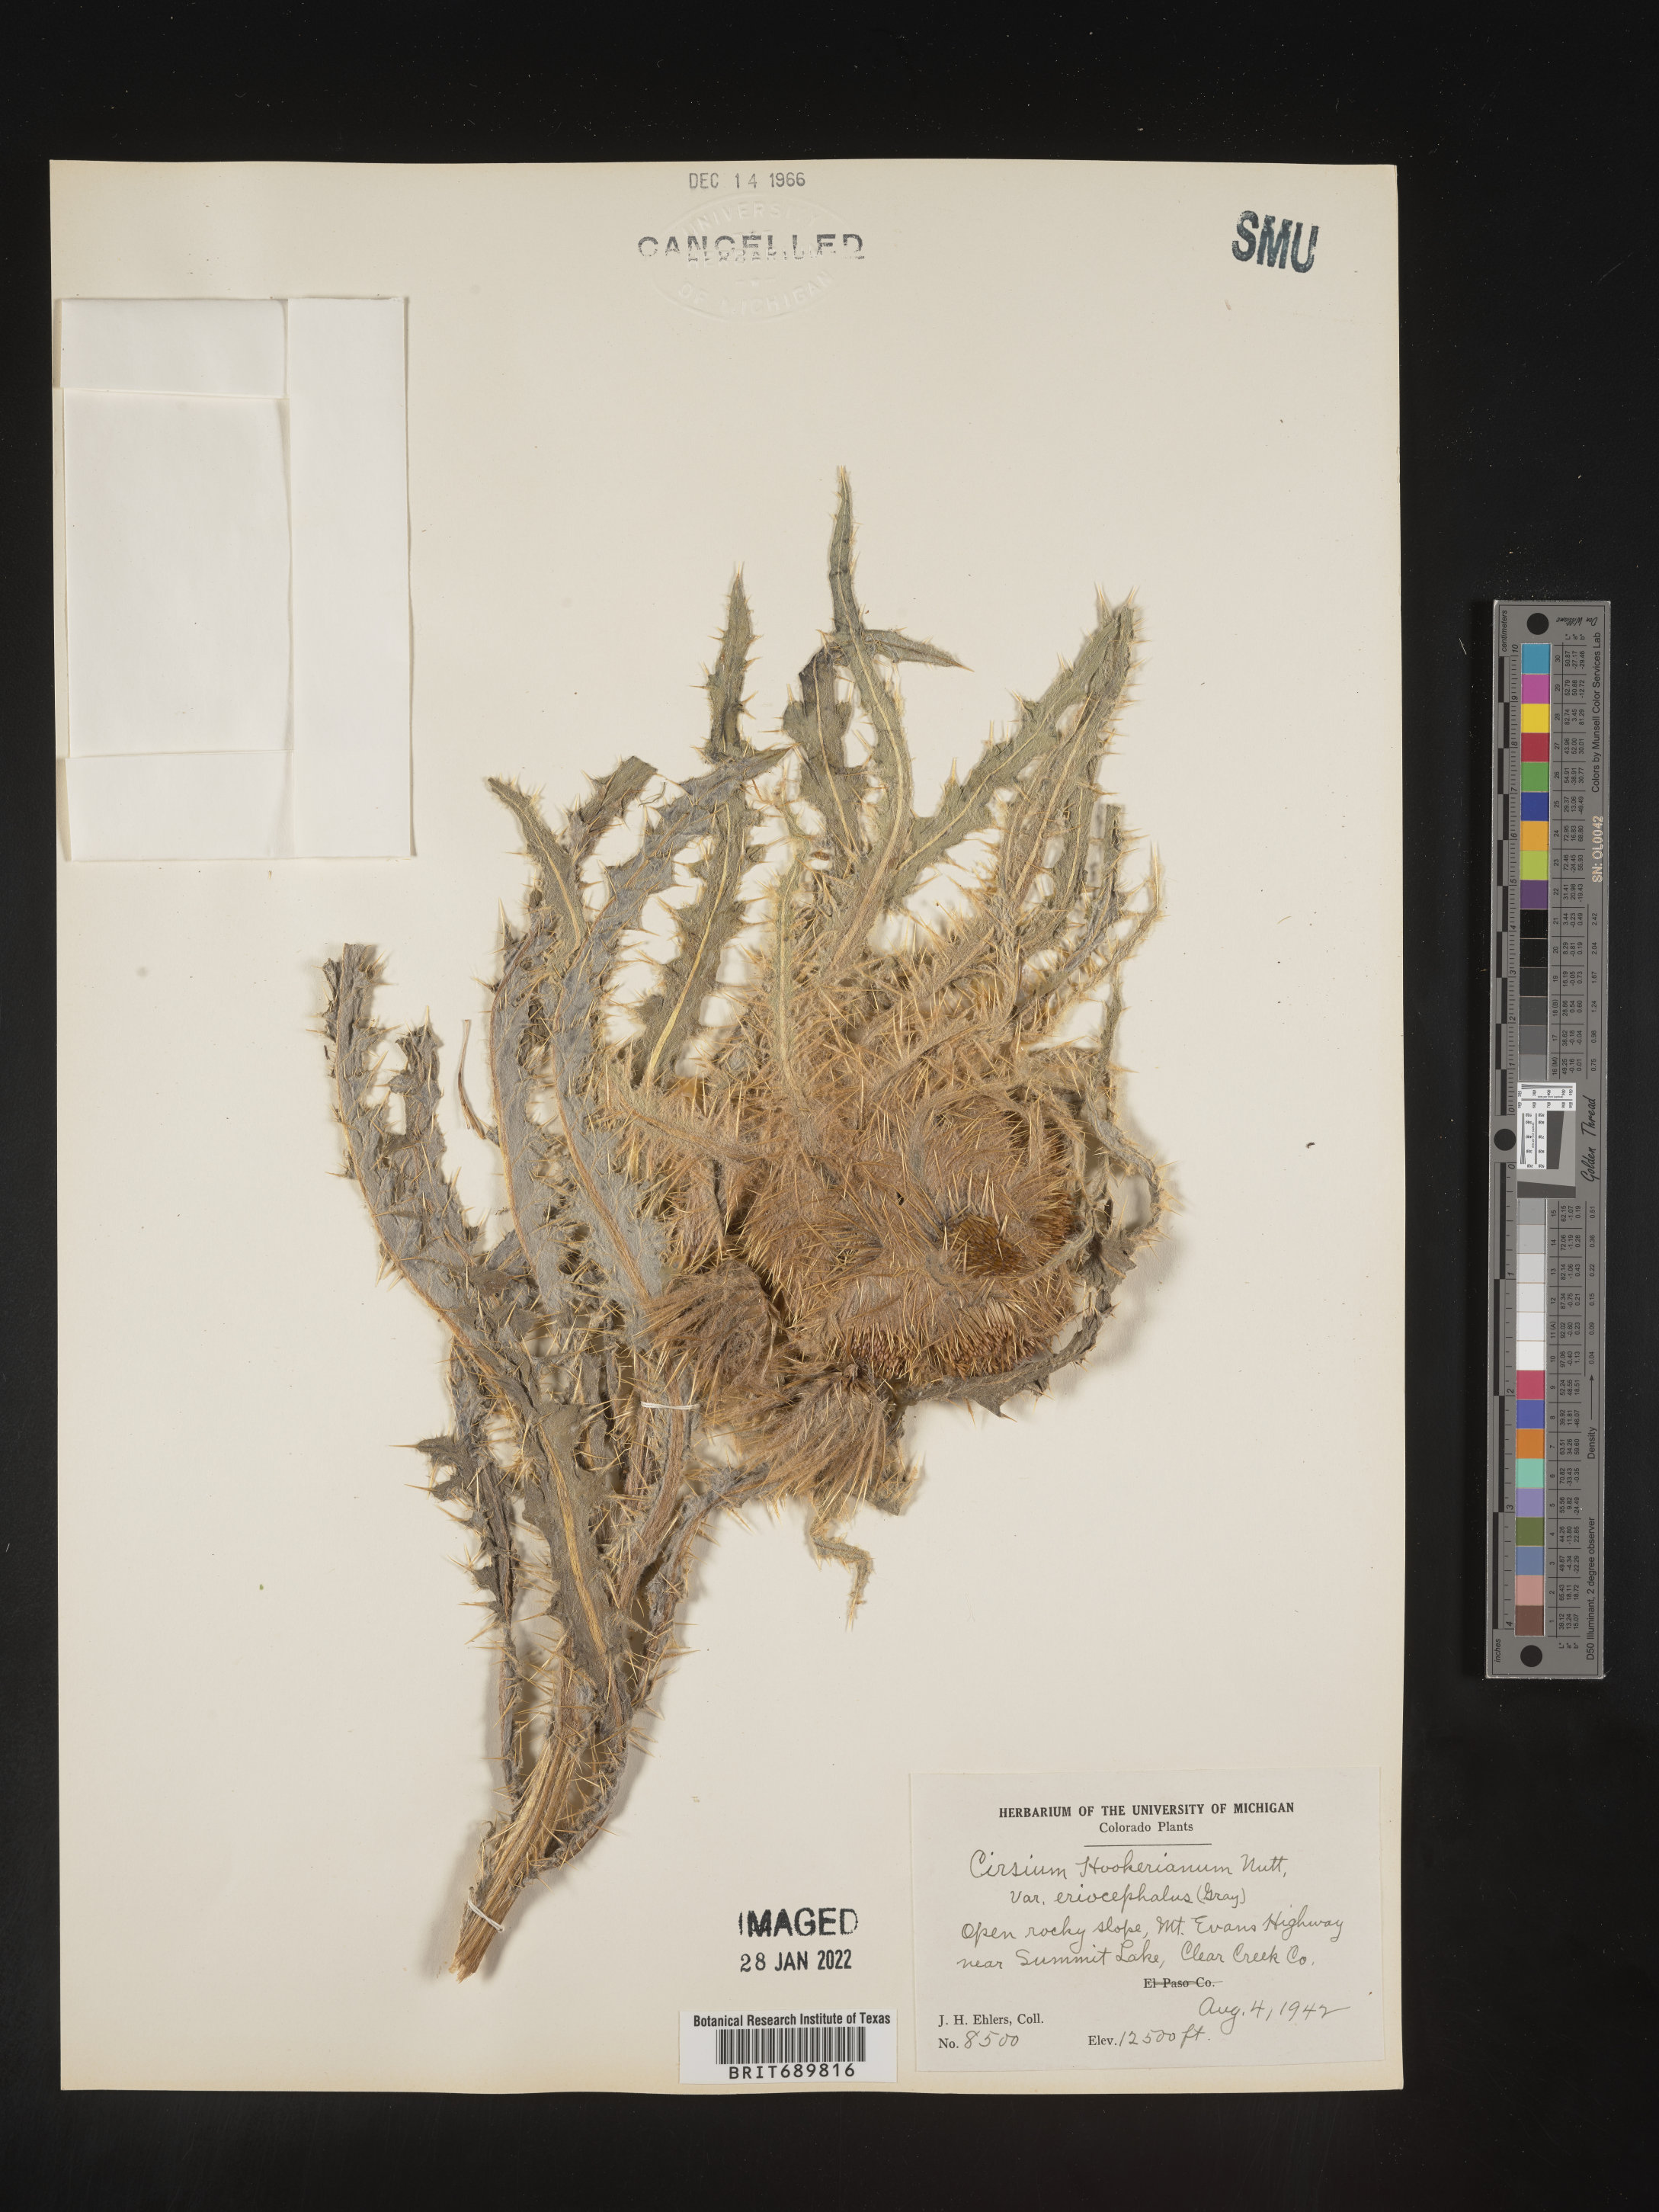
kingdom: Plantae
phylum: Tracheophyta
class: Magnoliopsida
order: Asterales
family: Asteraceae
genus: Cirsium
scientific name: Cirsium scopulorum
